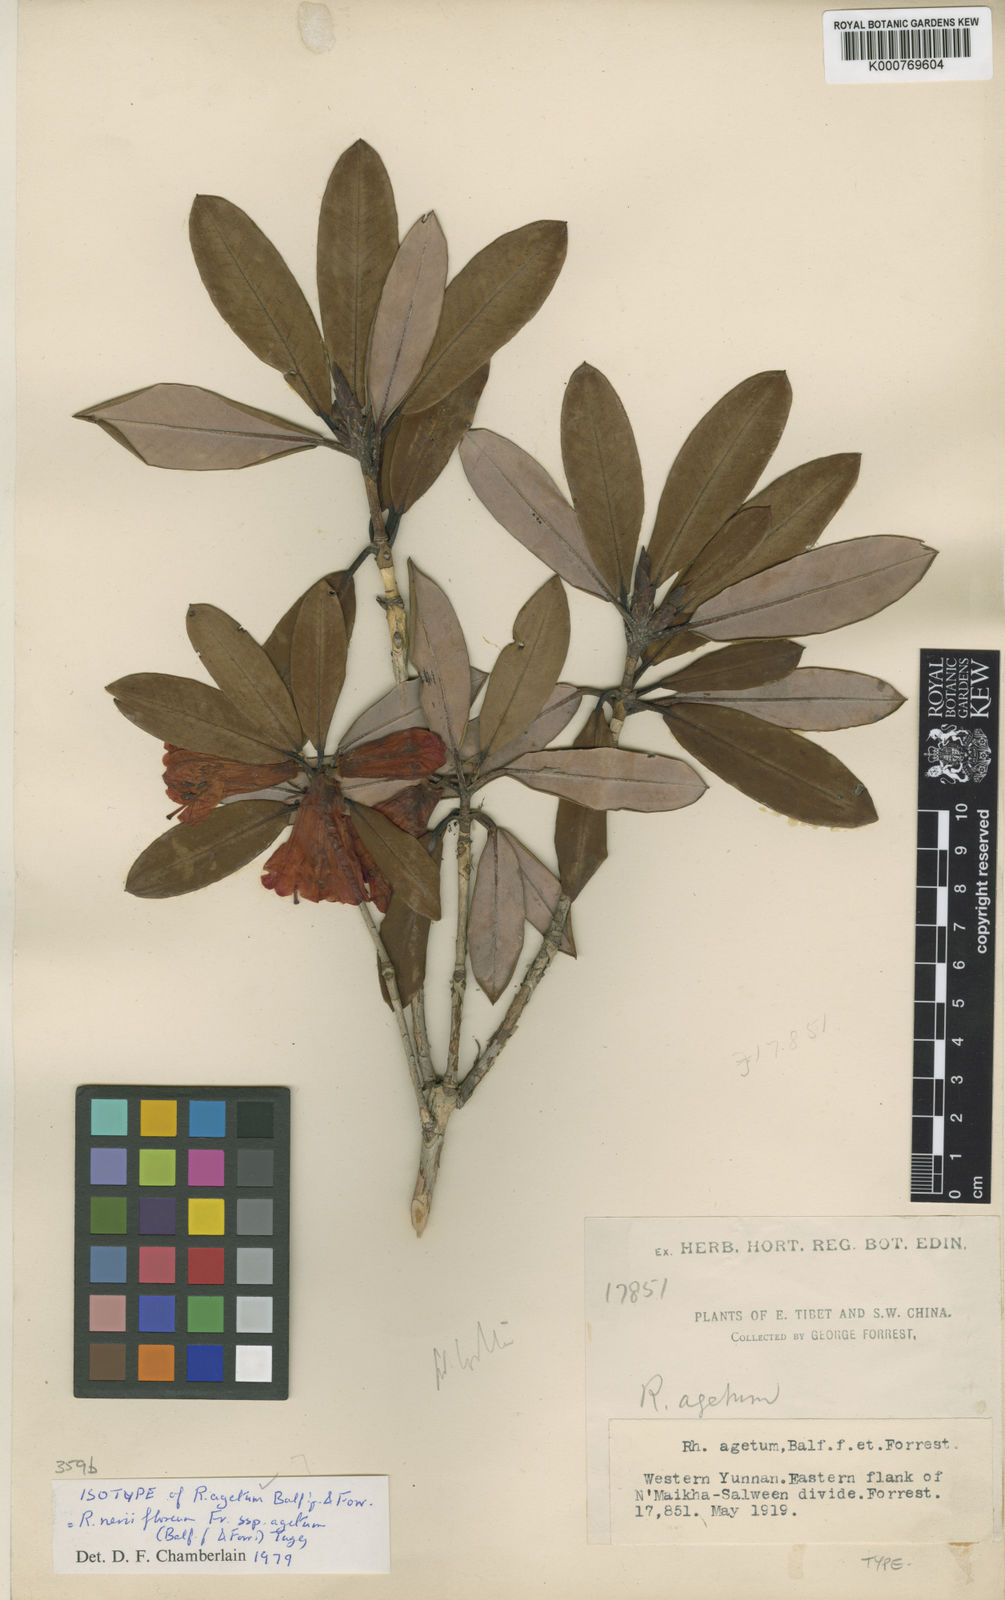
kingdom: Plantae
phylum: Tracheophyta
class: Magnoliopsida
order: Ericales
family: Ericaceae
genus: Rhododendron
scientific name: Rhododendron neriiflorum
